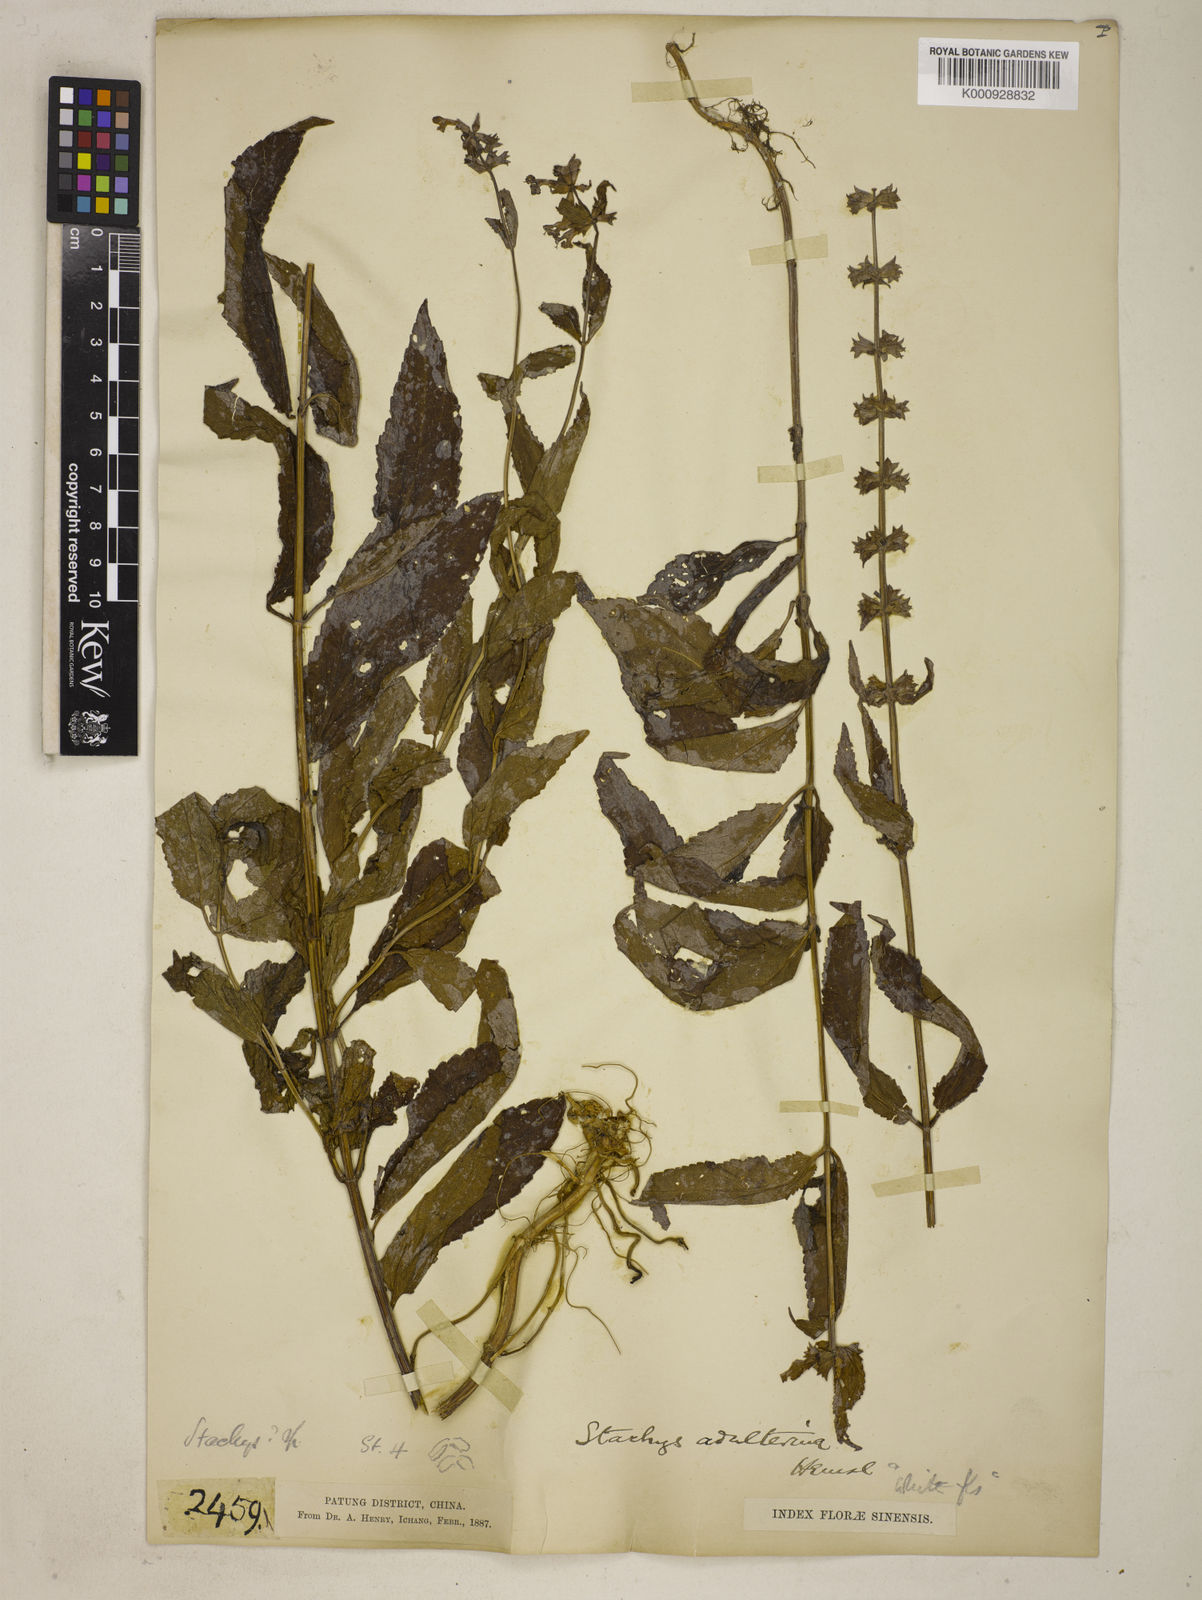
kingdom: Plantae
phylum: Tracheophyta
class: Magnoliopsida
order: Lamiales
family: Lamiaceae
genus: Stachys
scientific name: Stachys adulterina
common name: Hubei-artichoke
